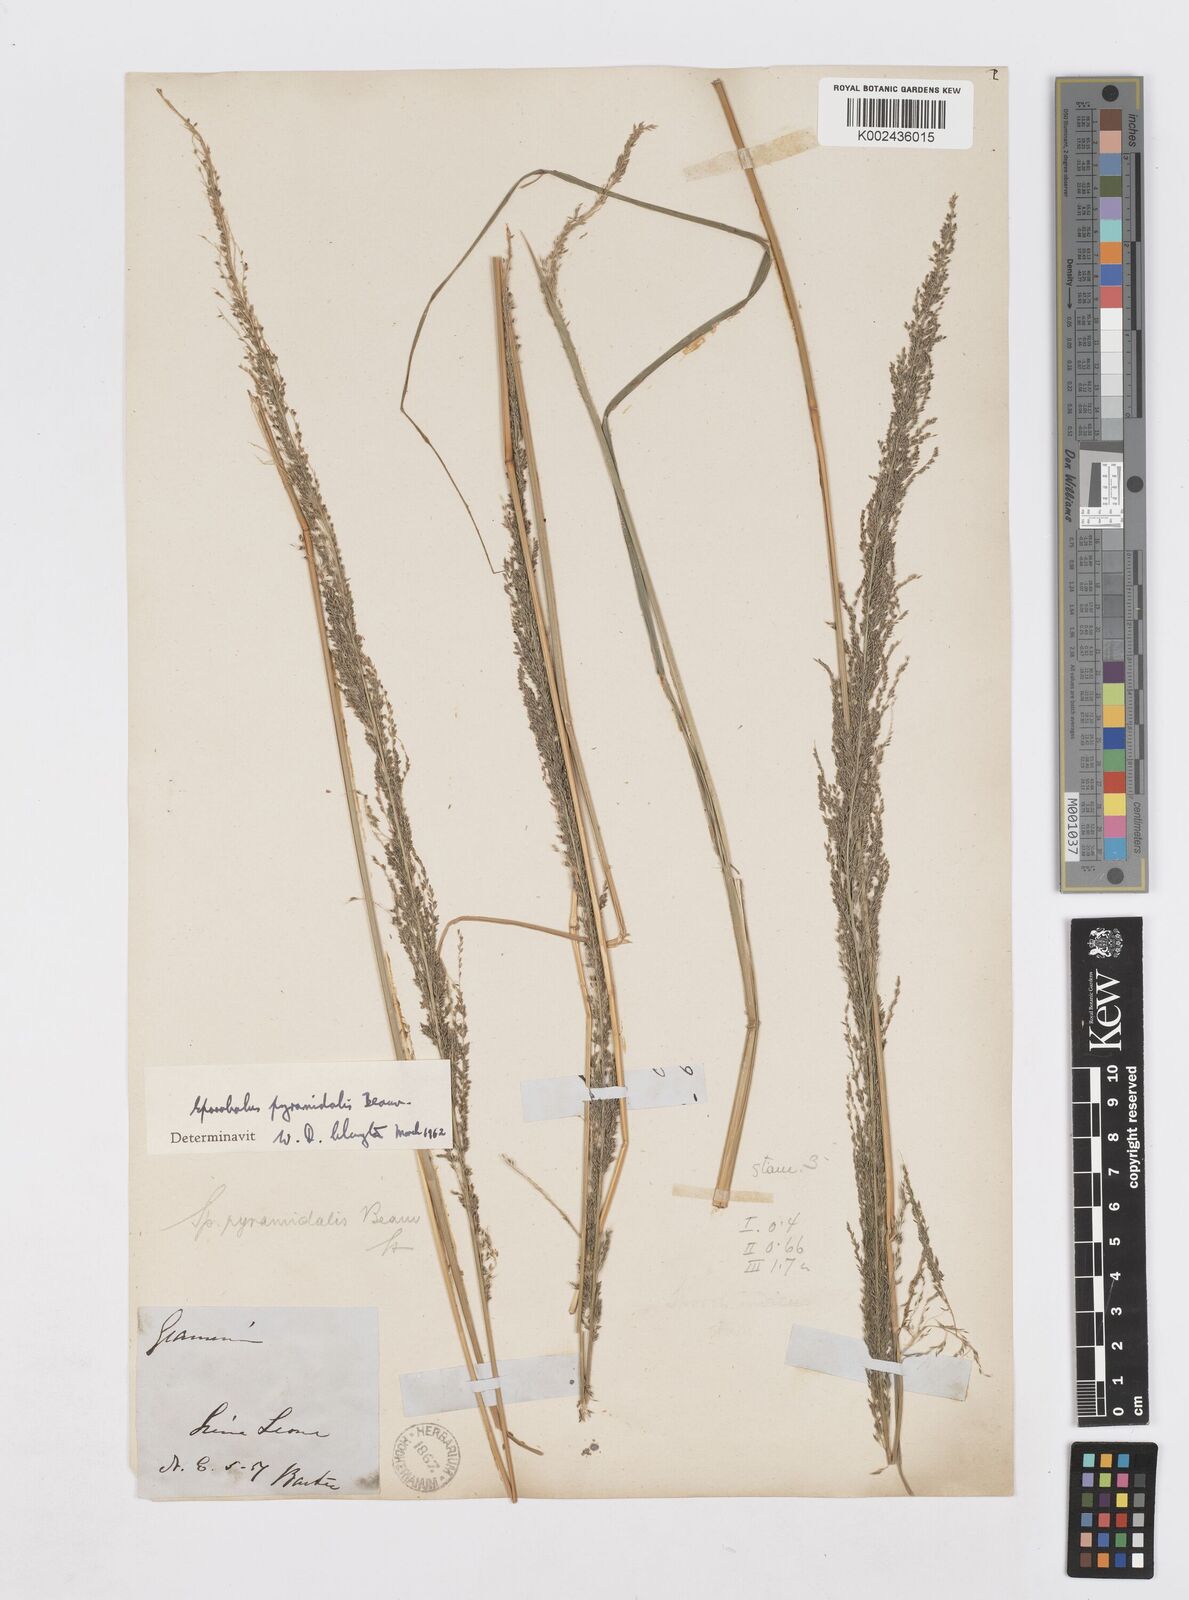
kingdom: Plantae
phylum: Tracheophyta
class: Liliopsida
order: Poales
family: Poaceae
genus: Sporobolus
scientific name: Sporobolus pyramidalis
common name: West indian dropseed
